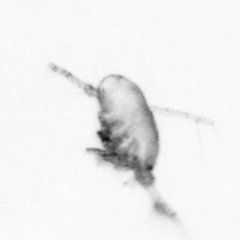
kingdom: Animalia
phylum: Arthropoda
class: Copepoda
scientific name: Copepoda
